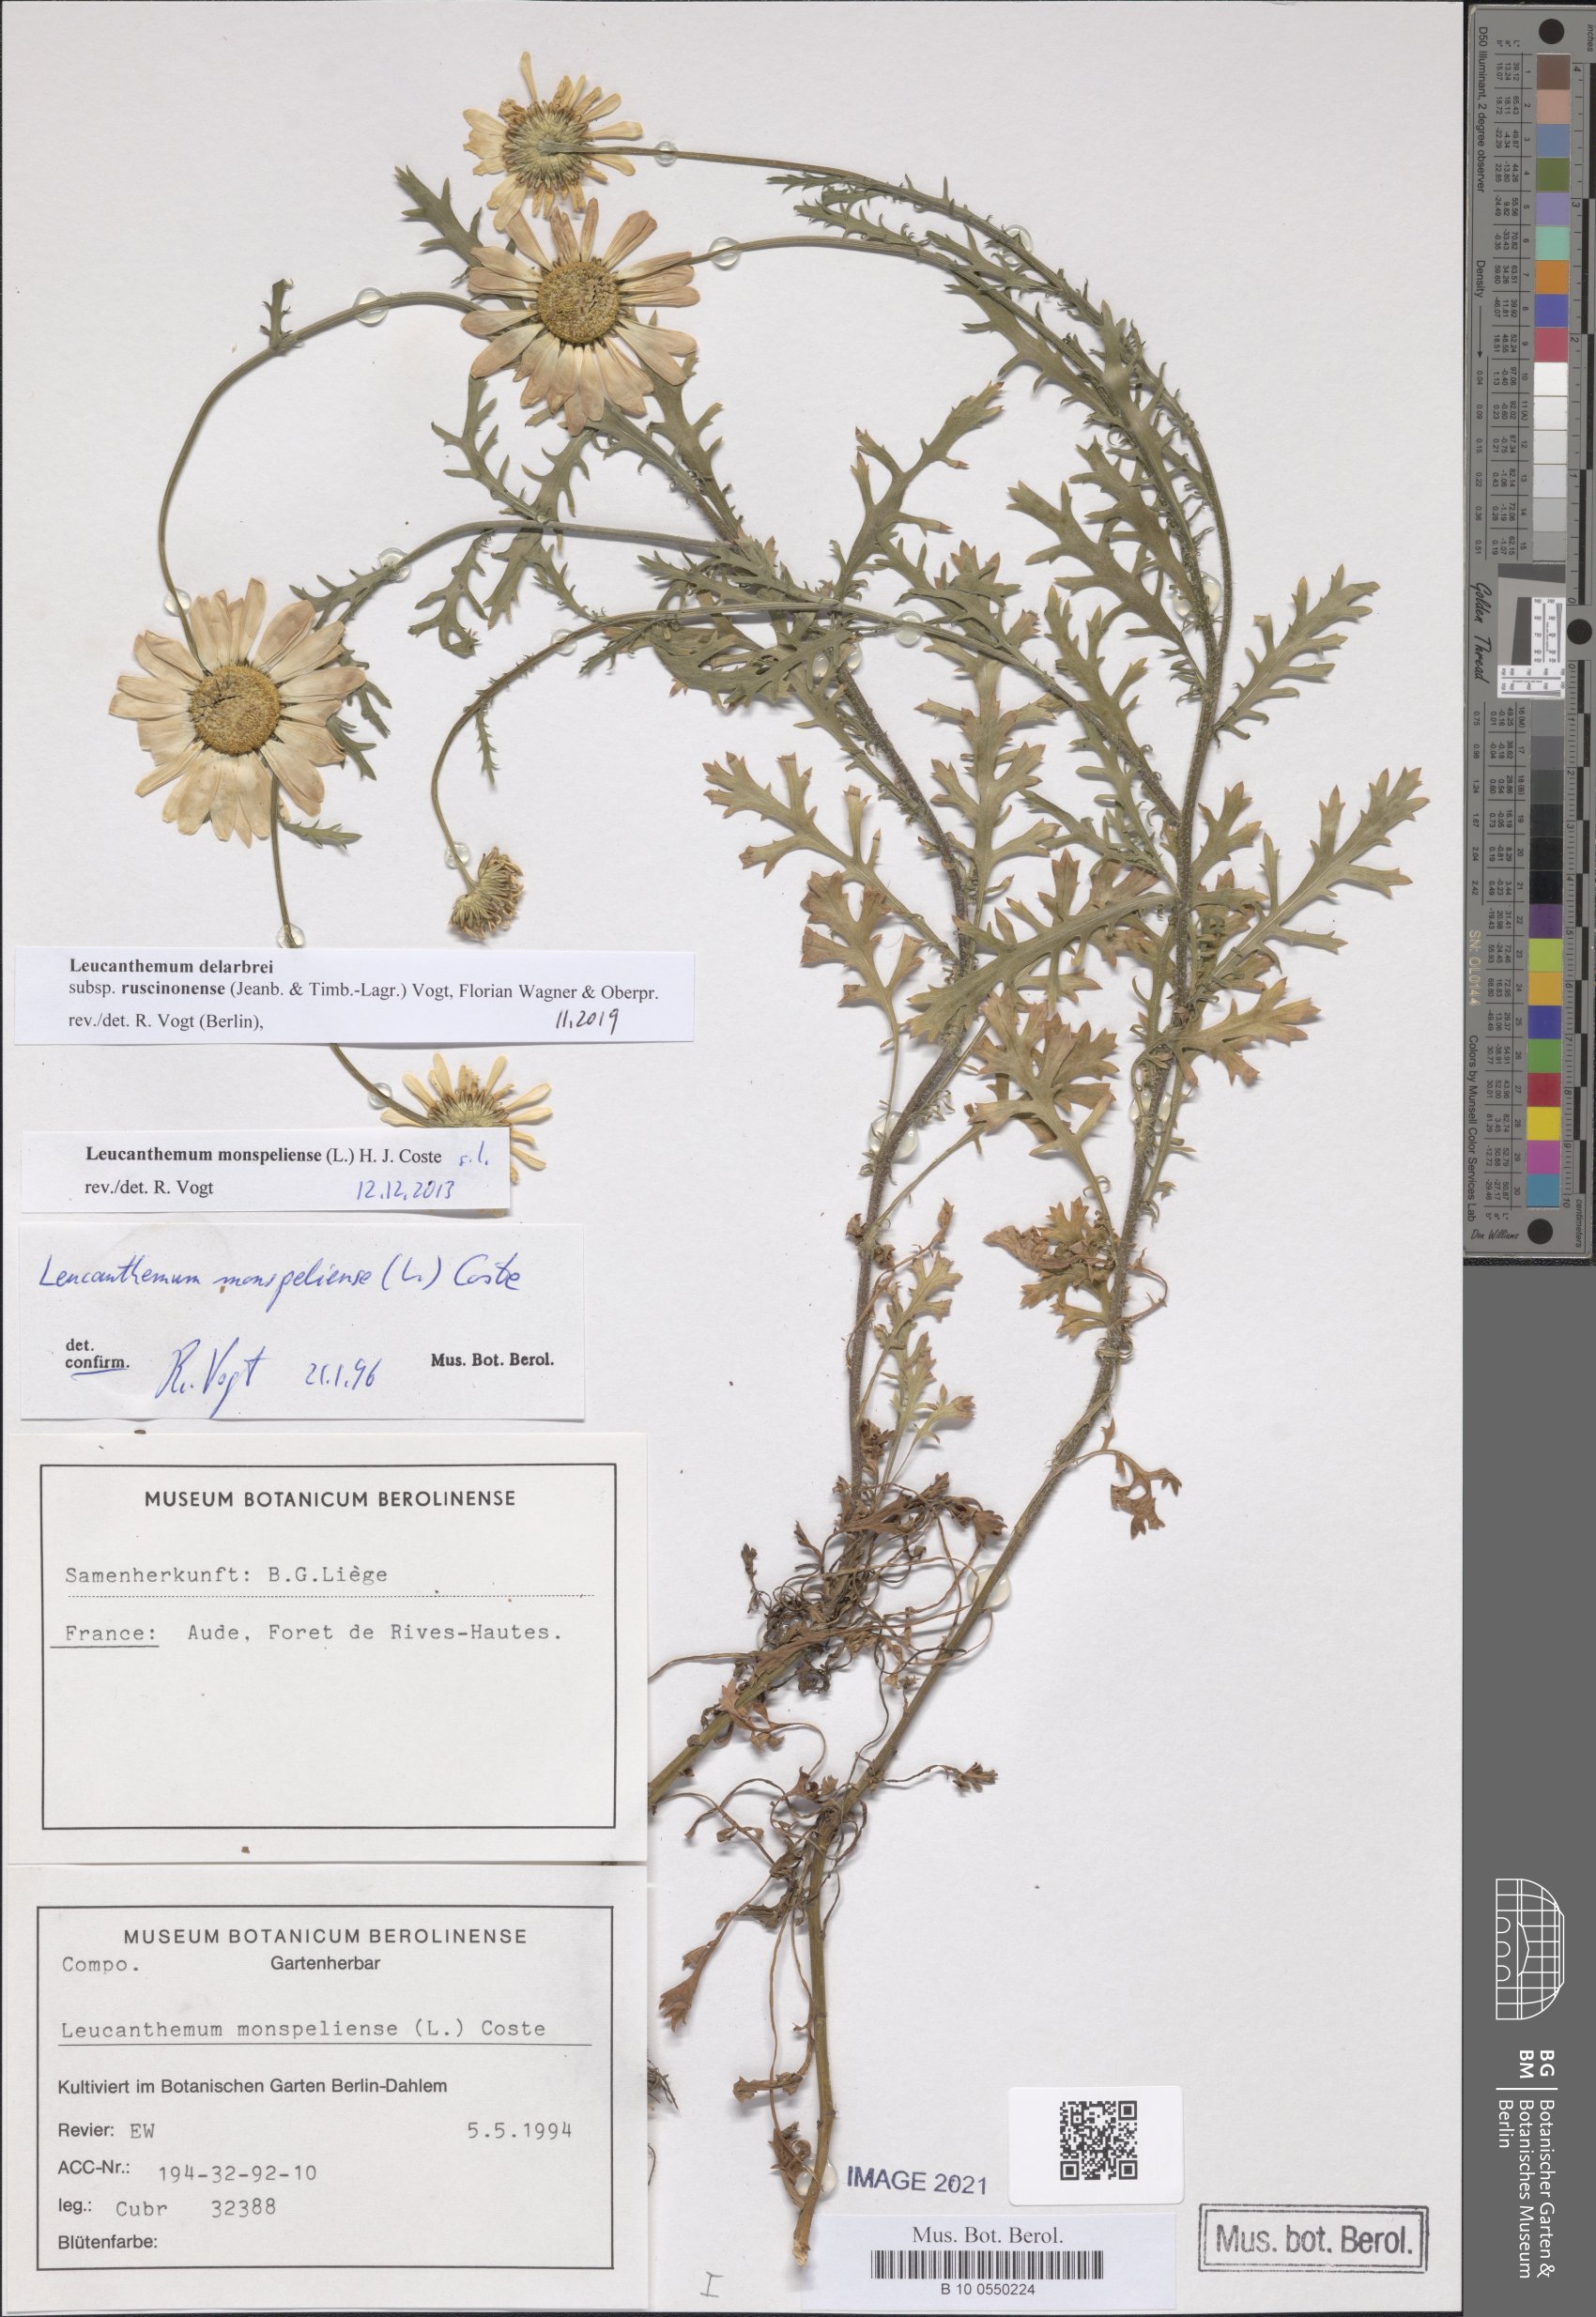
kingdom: Plantae
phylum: Tracheophyta
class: Magnoliopsida
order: Asterales
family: Asteraceae
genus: Leucanthemum
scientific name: Leucanthemum delarbrei
